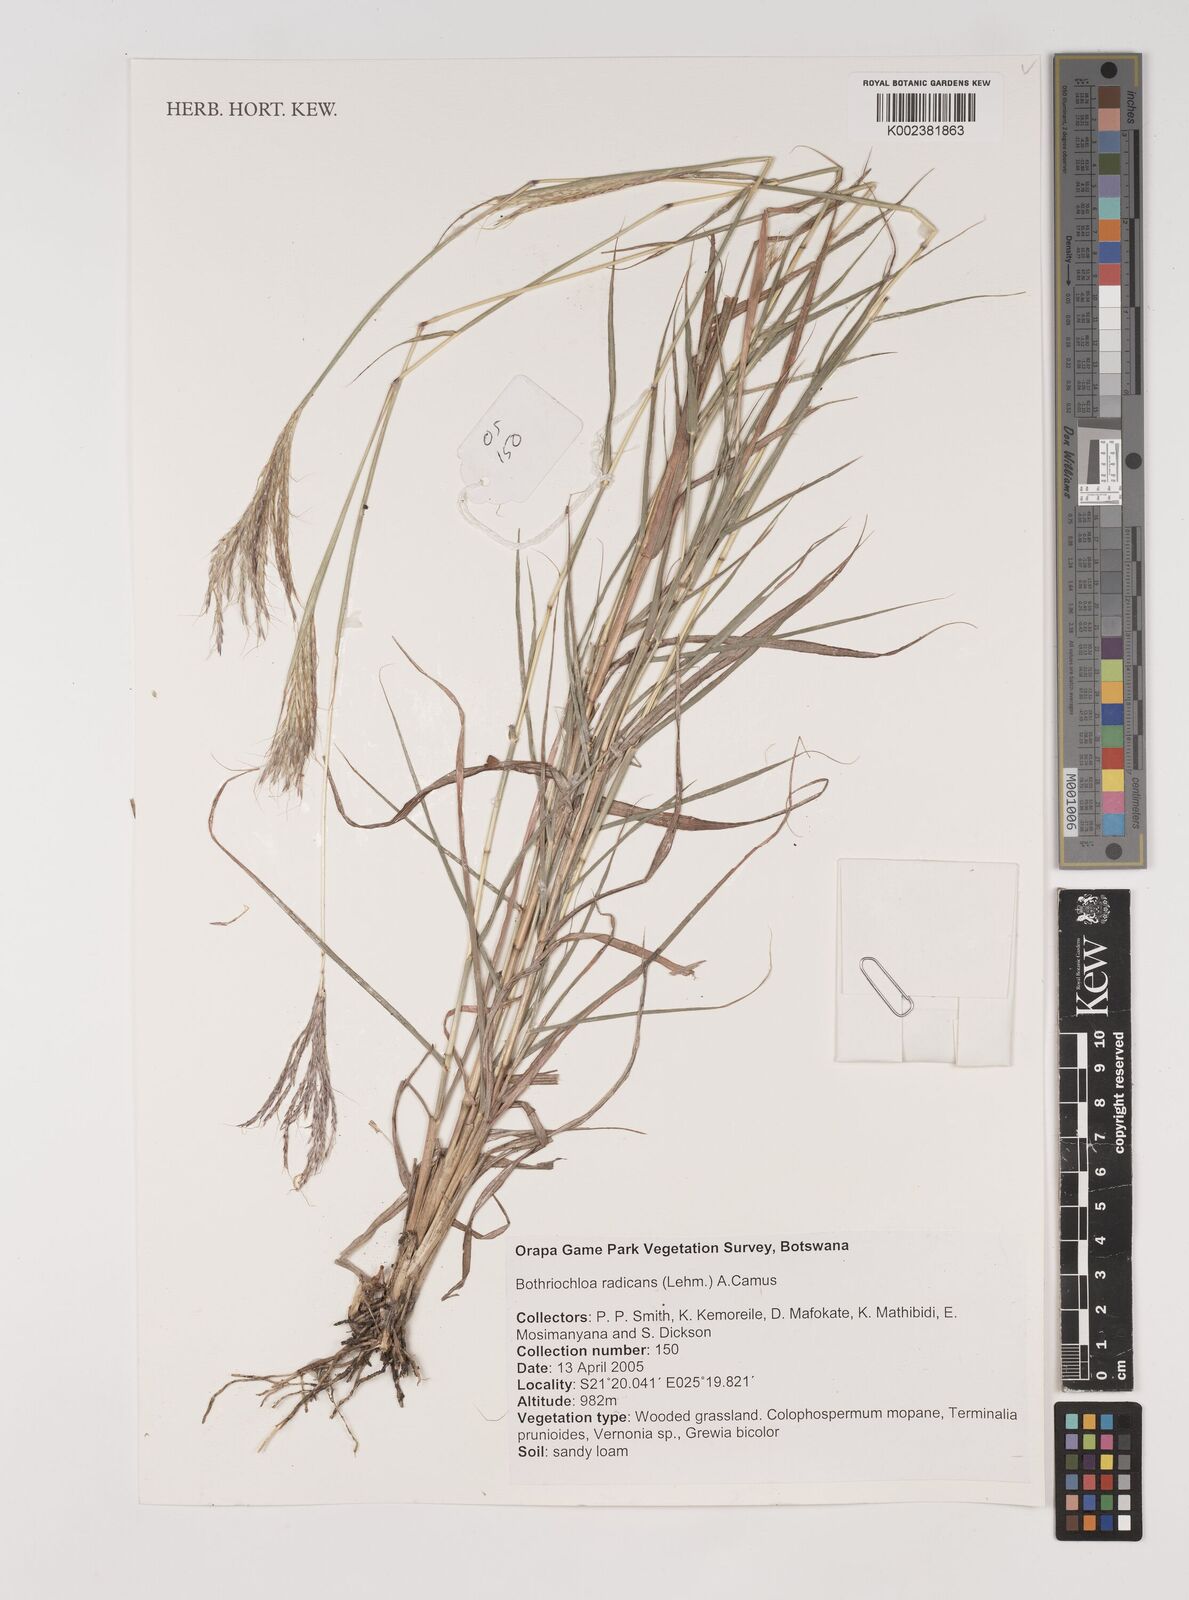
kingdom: Plantae
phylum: Tracheophyta
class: Liliopsida
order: Poales
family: Poaceae
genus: Bothriochloa
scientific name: Bothriochloa radicans
